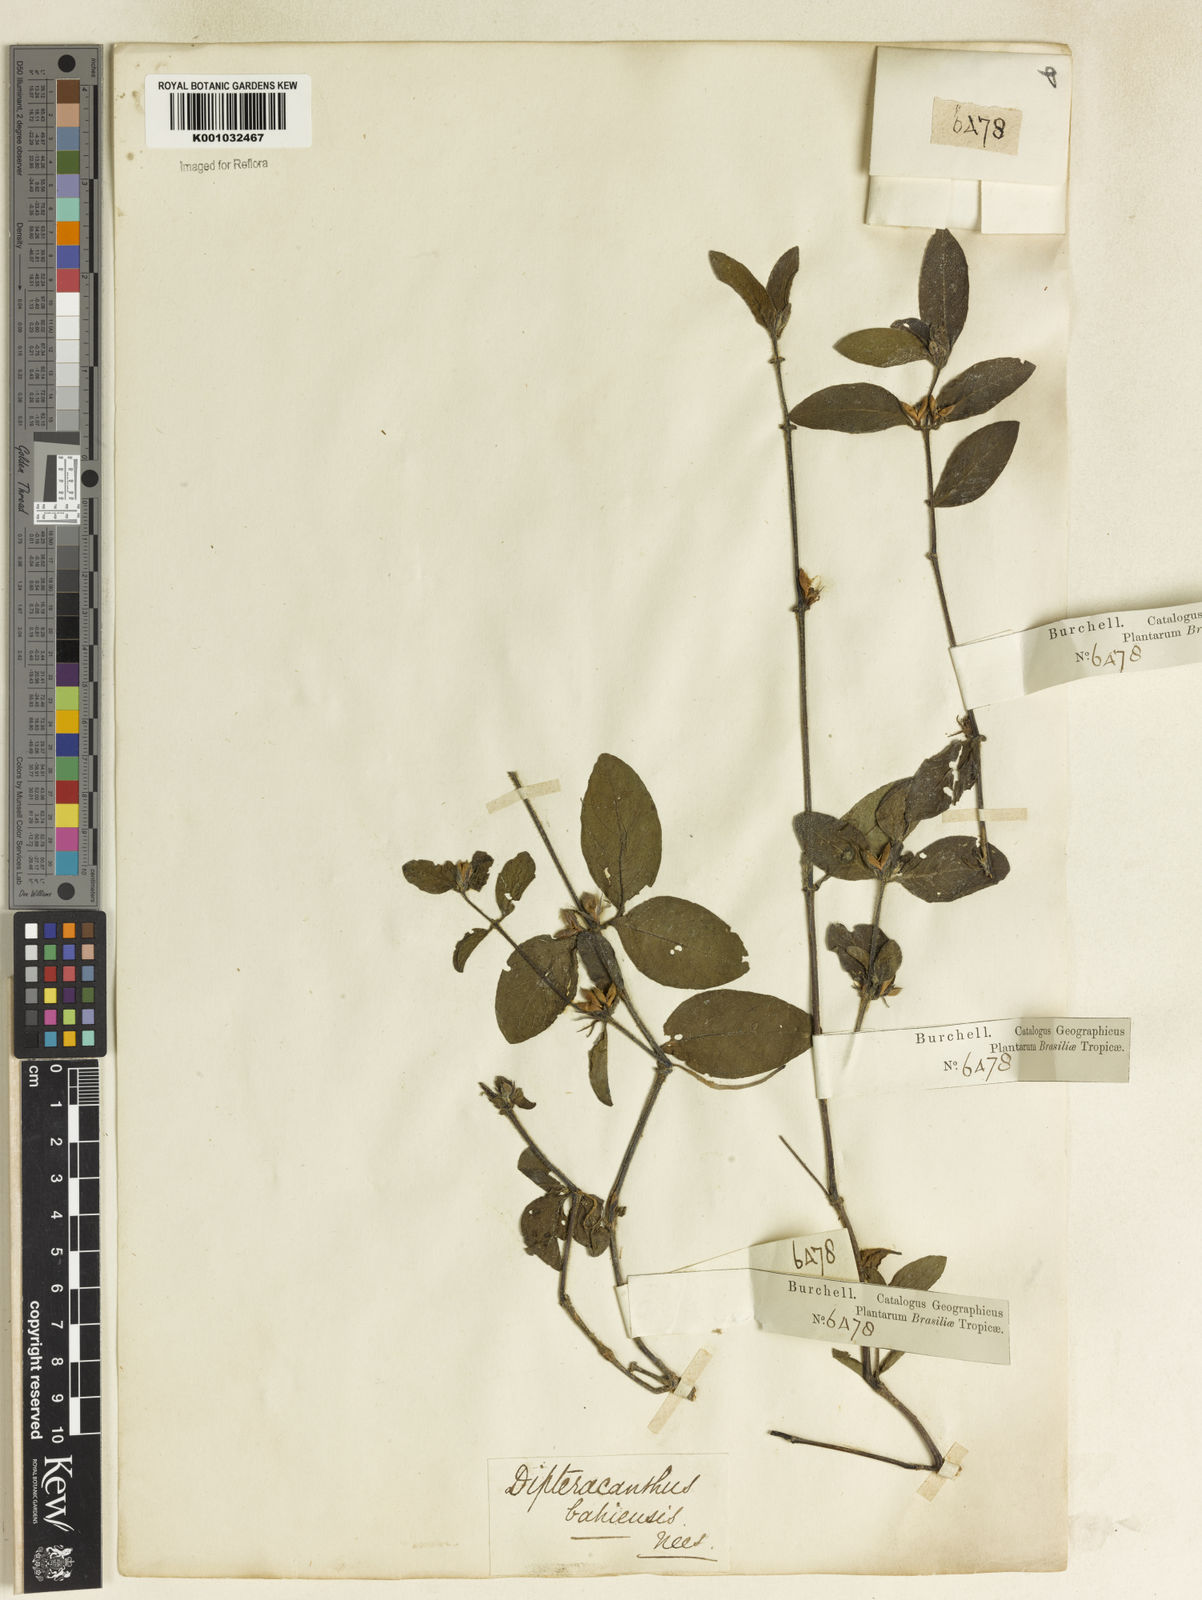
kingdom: Plantae
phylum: Tracheophyta
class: Magnoliopsida
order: Lamiales
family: Acanthaceae
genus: Ruellia
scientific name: Ruellia bahiensis
